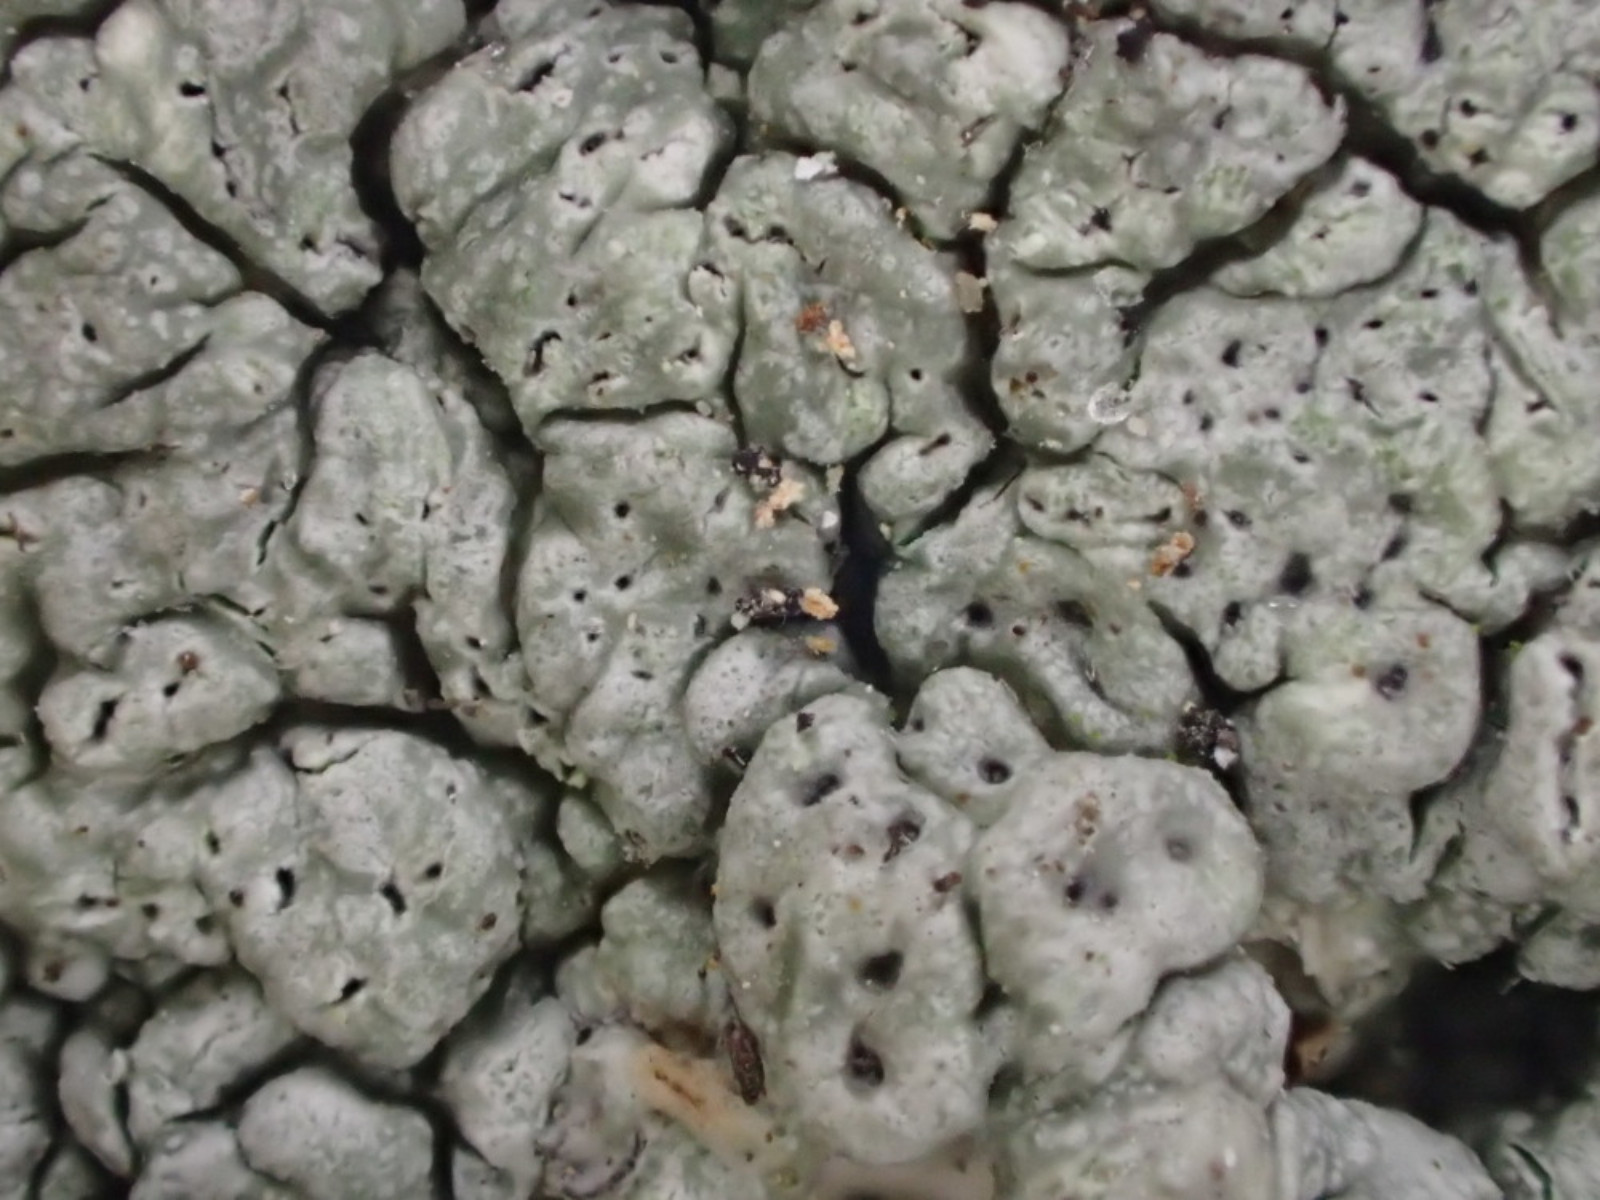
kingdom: Fungi
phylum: Ascomycota
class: Lecanoromycetes
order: Pertusariales
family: Pertusariaceae
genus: Pertusaria
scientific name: Pertusaria pertusa
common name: almindelig prikvortelav
